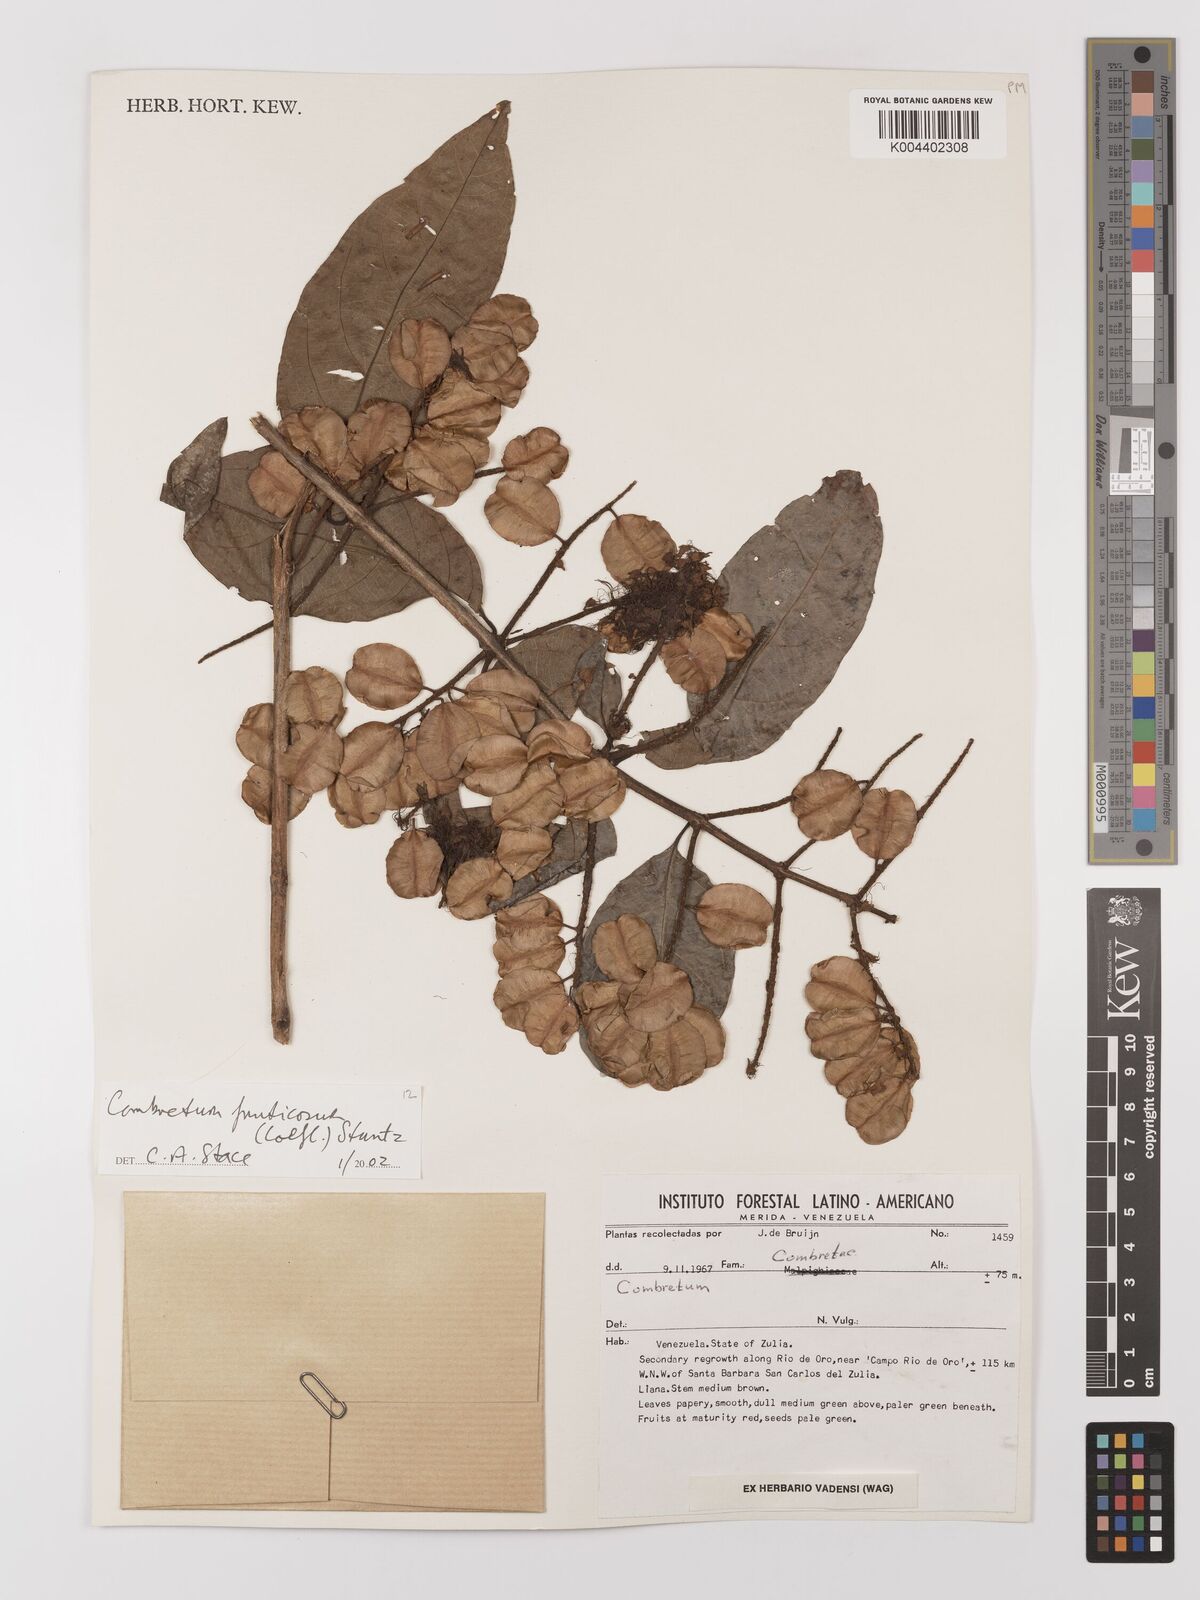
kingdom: Plantae
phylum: Tracheophyta
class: Magnoliopsida
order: Myrtales
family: Combretaceae
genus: Combretum
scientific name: Combretum fruticosum
